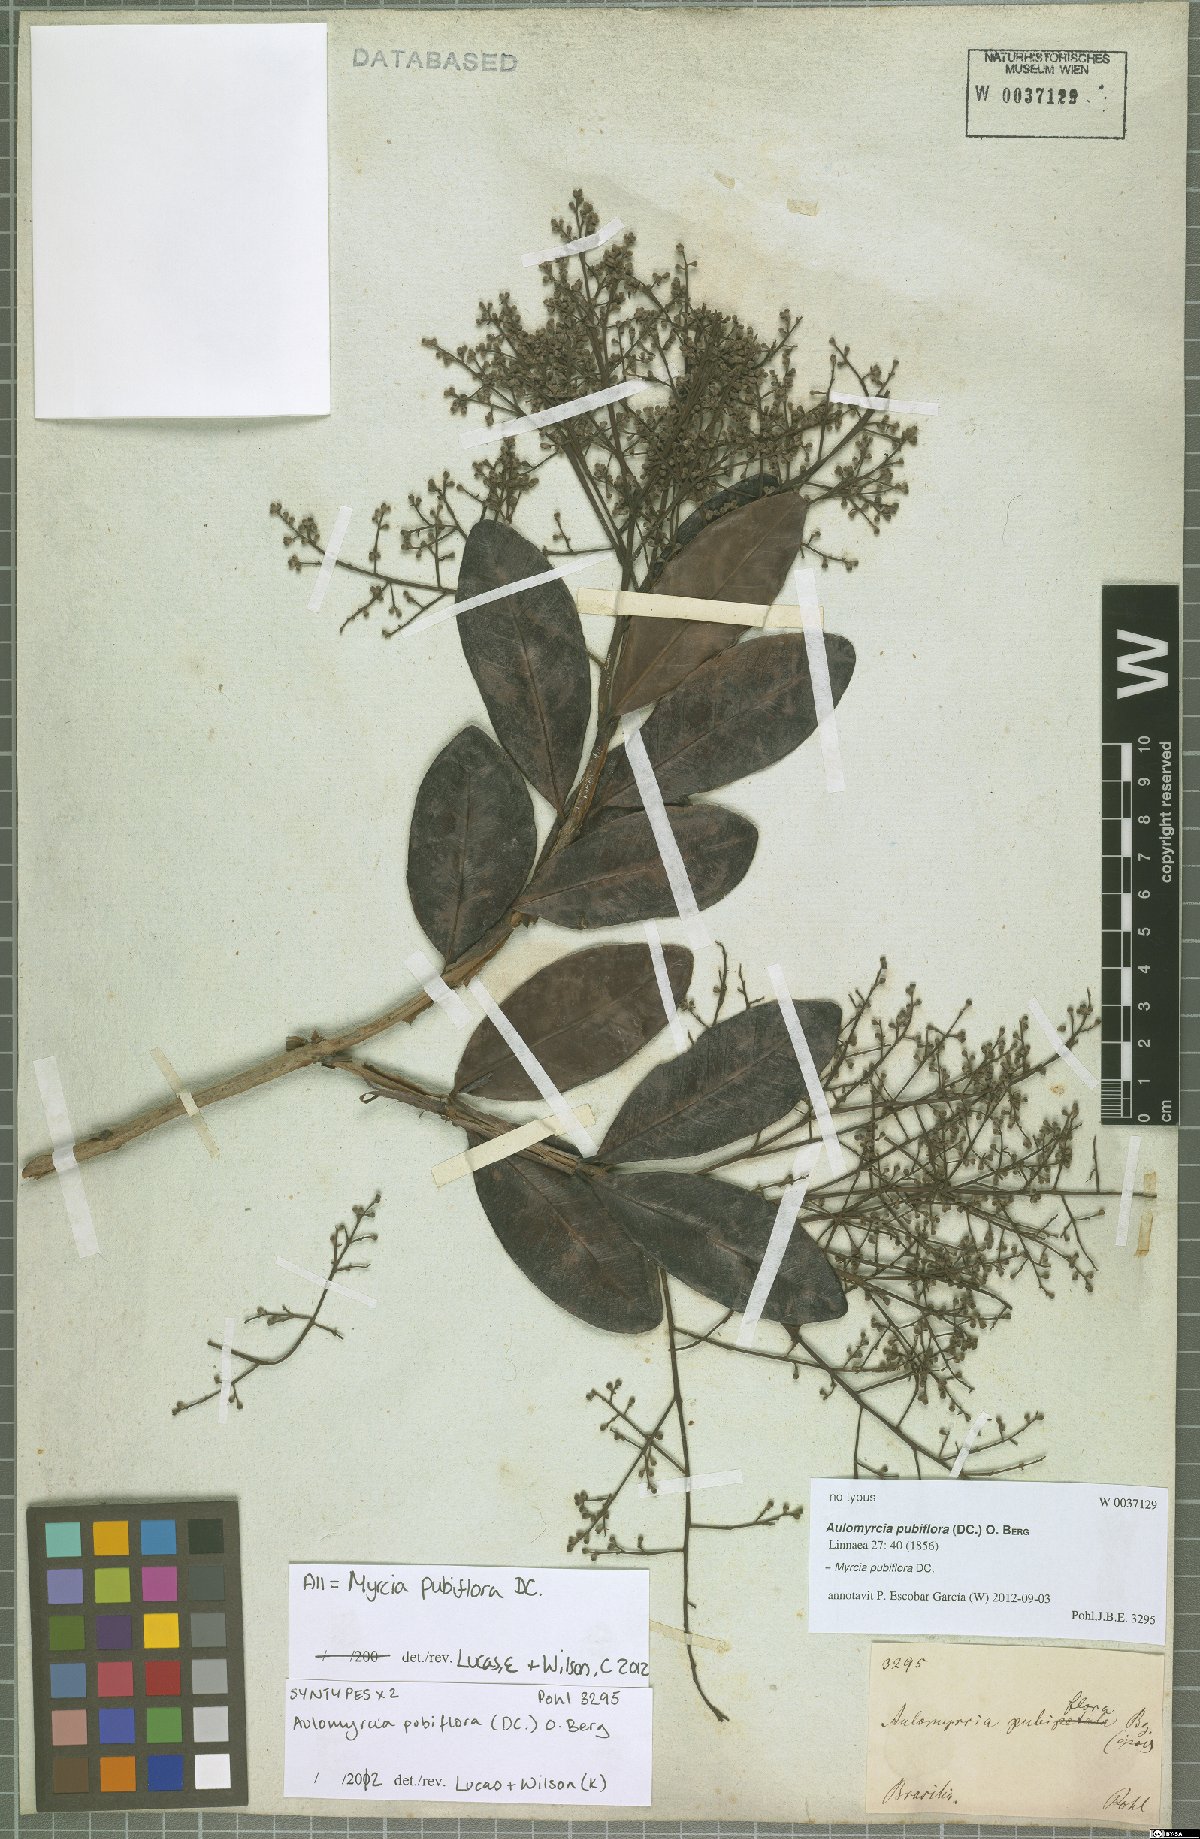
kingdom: Plantae
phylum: Tracheophyta
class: Magnoliopsida
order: Myrtales
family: Myrtaceae
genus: Myrcia
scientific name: Myrcia pubiflora
